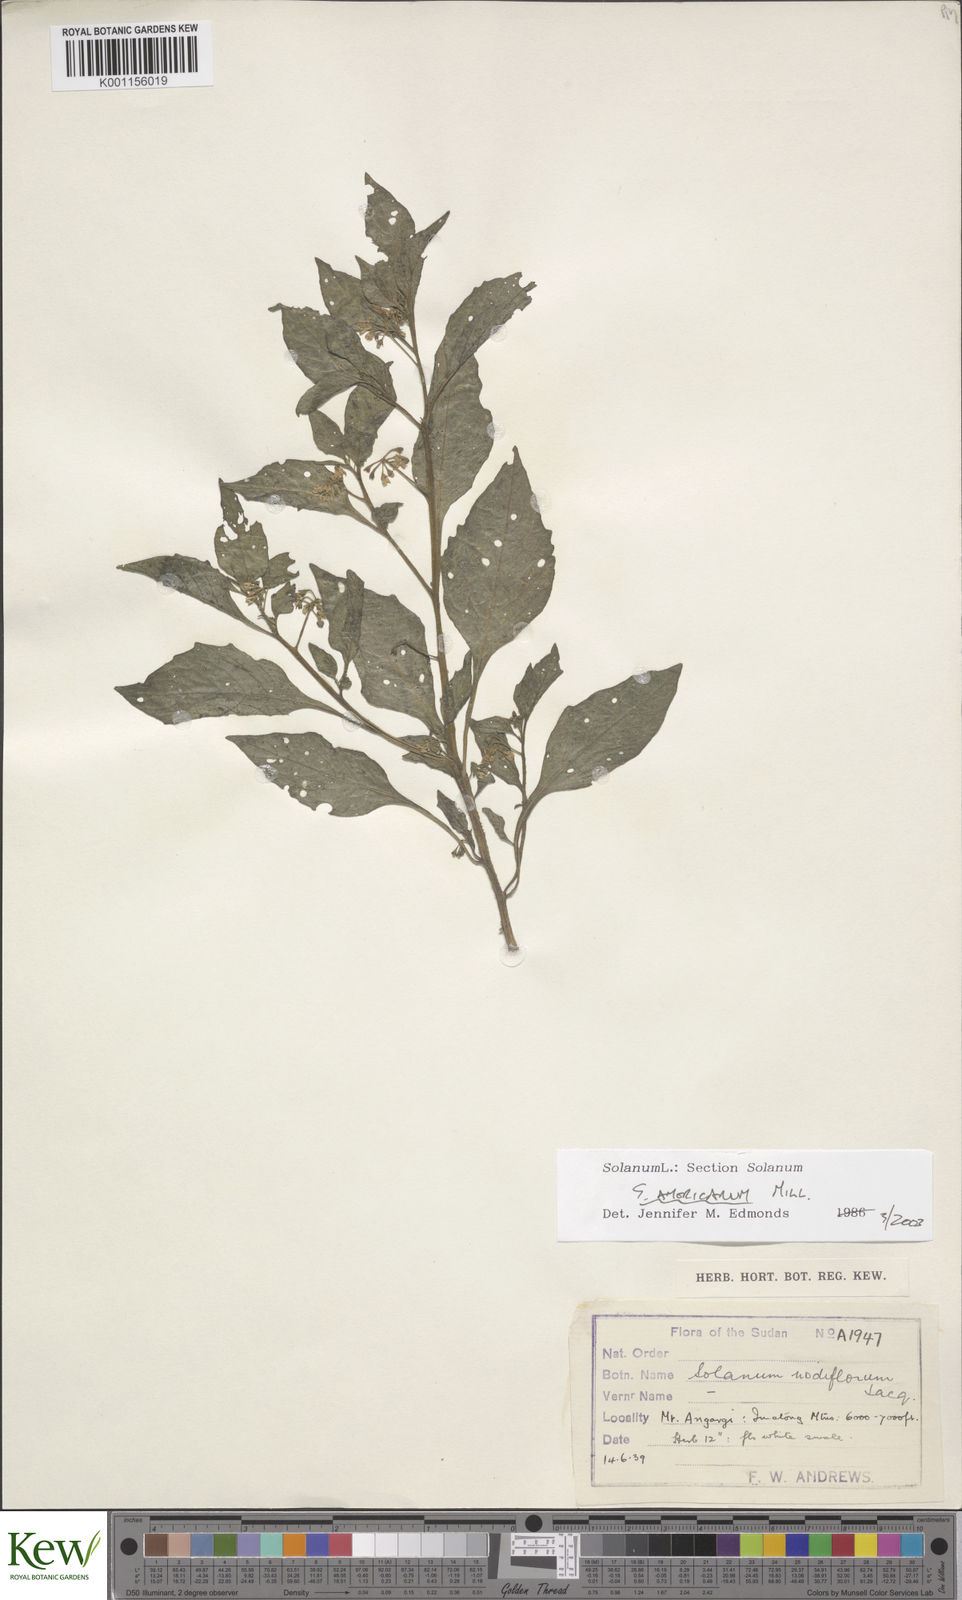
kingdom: Plantae
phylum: Tracheophyta
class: Magnoliopsida
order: Solanales
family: Solanaceae
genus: Solanum
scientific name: Solanum tarderemotum
